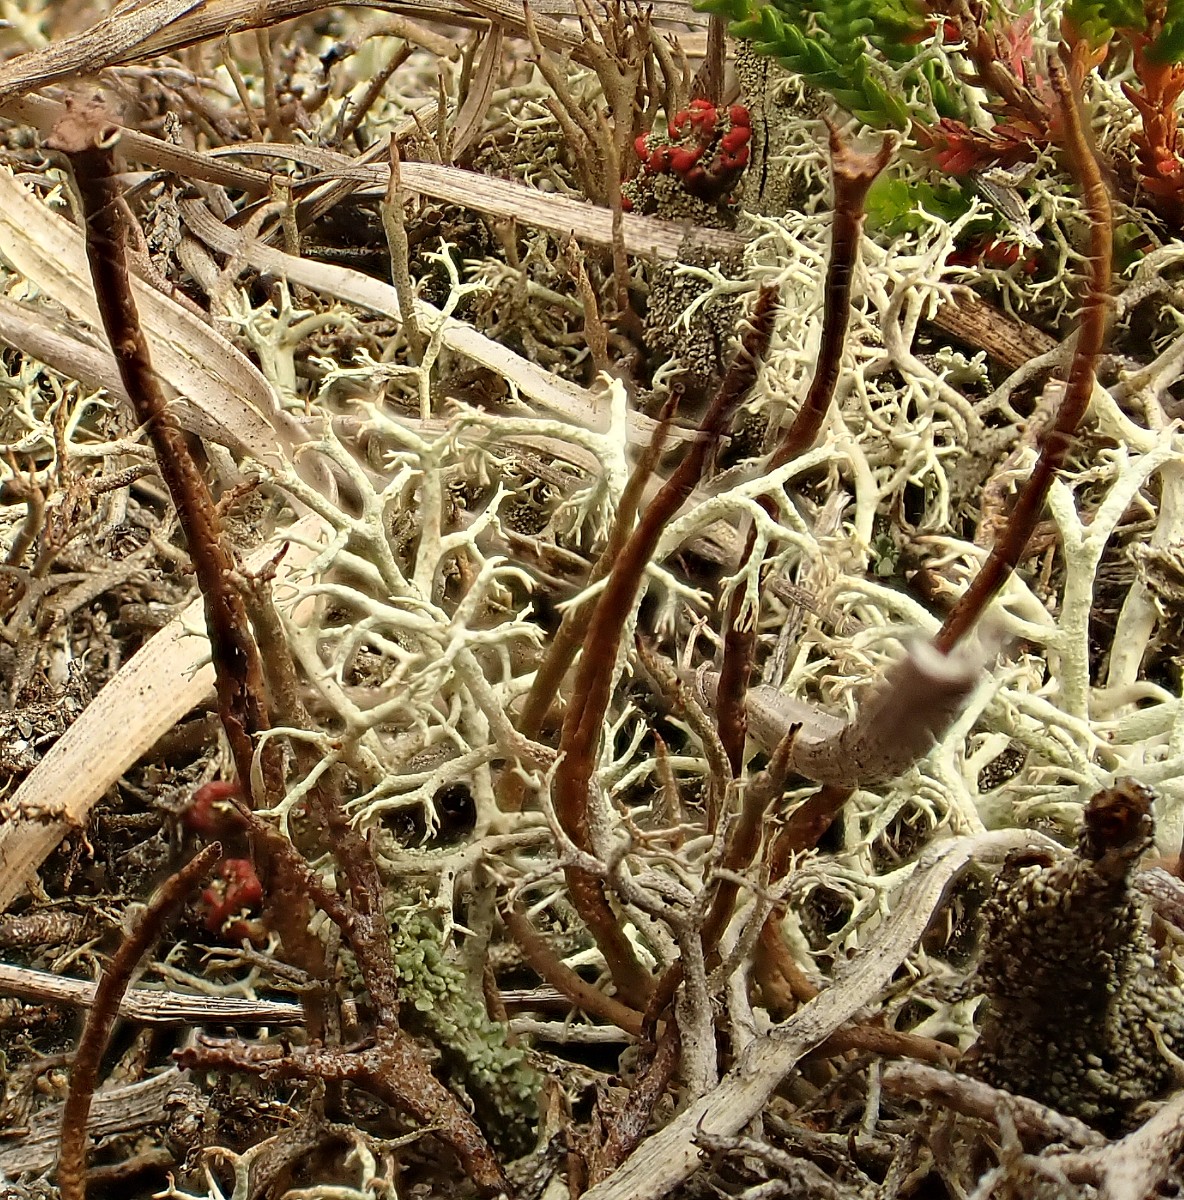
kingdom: Fungi
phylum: Ascomycota
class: Lecanoromycetes
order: Lecanorales
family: Cladoniaceae
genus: Cladonia
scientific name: Cladonia gracilis
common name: slank bægerlav
